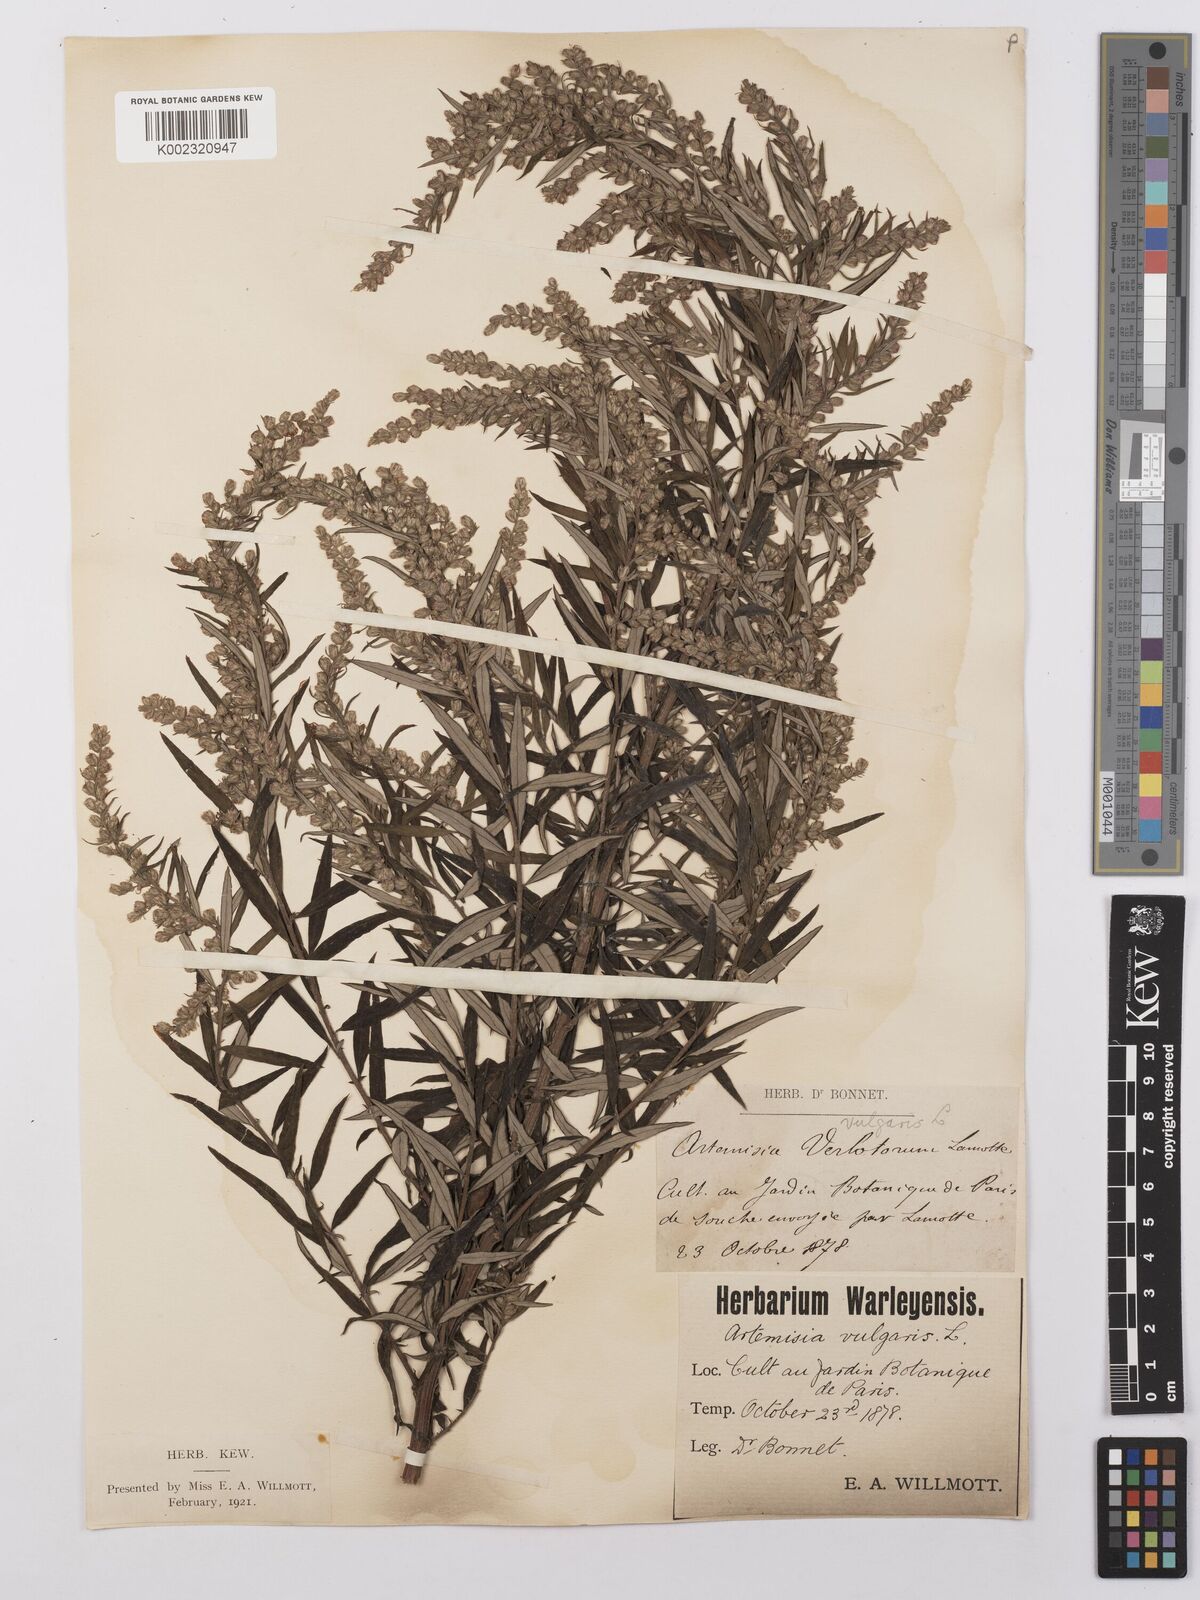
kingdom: Plantae
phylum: Tracheophyta
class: Magnoliopsida
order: Asterales
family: Asteraceae
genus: Artemisia
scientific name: Artemisia verlotiorum
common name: Chinese mugwort
